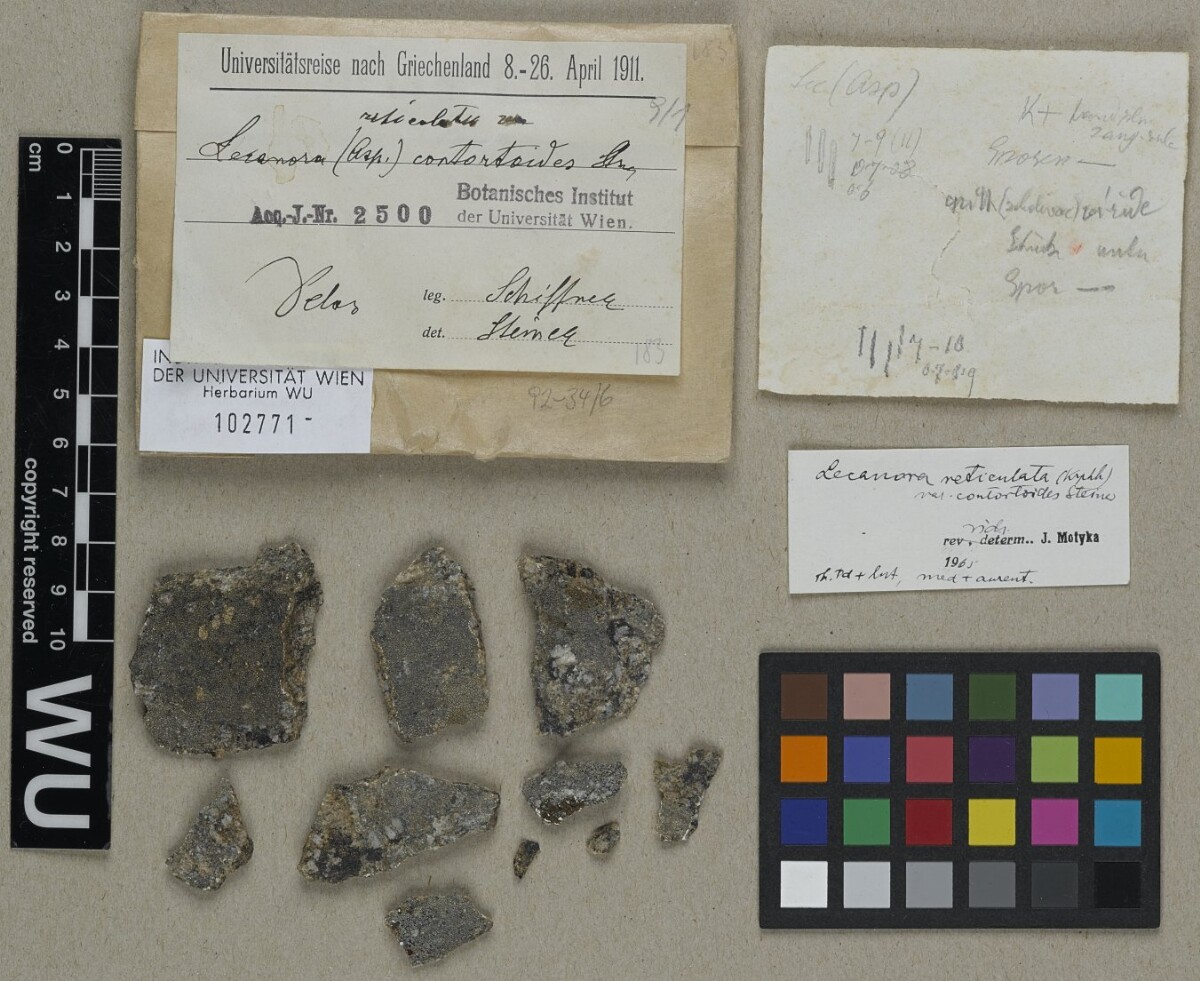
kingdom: Fungi
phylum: Ascomycota
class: Lecanoromycetes
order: Lecanorales
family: Lecanoraceae
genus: Lecanora
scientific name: Lecanora reticulata
